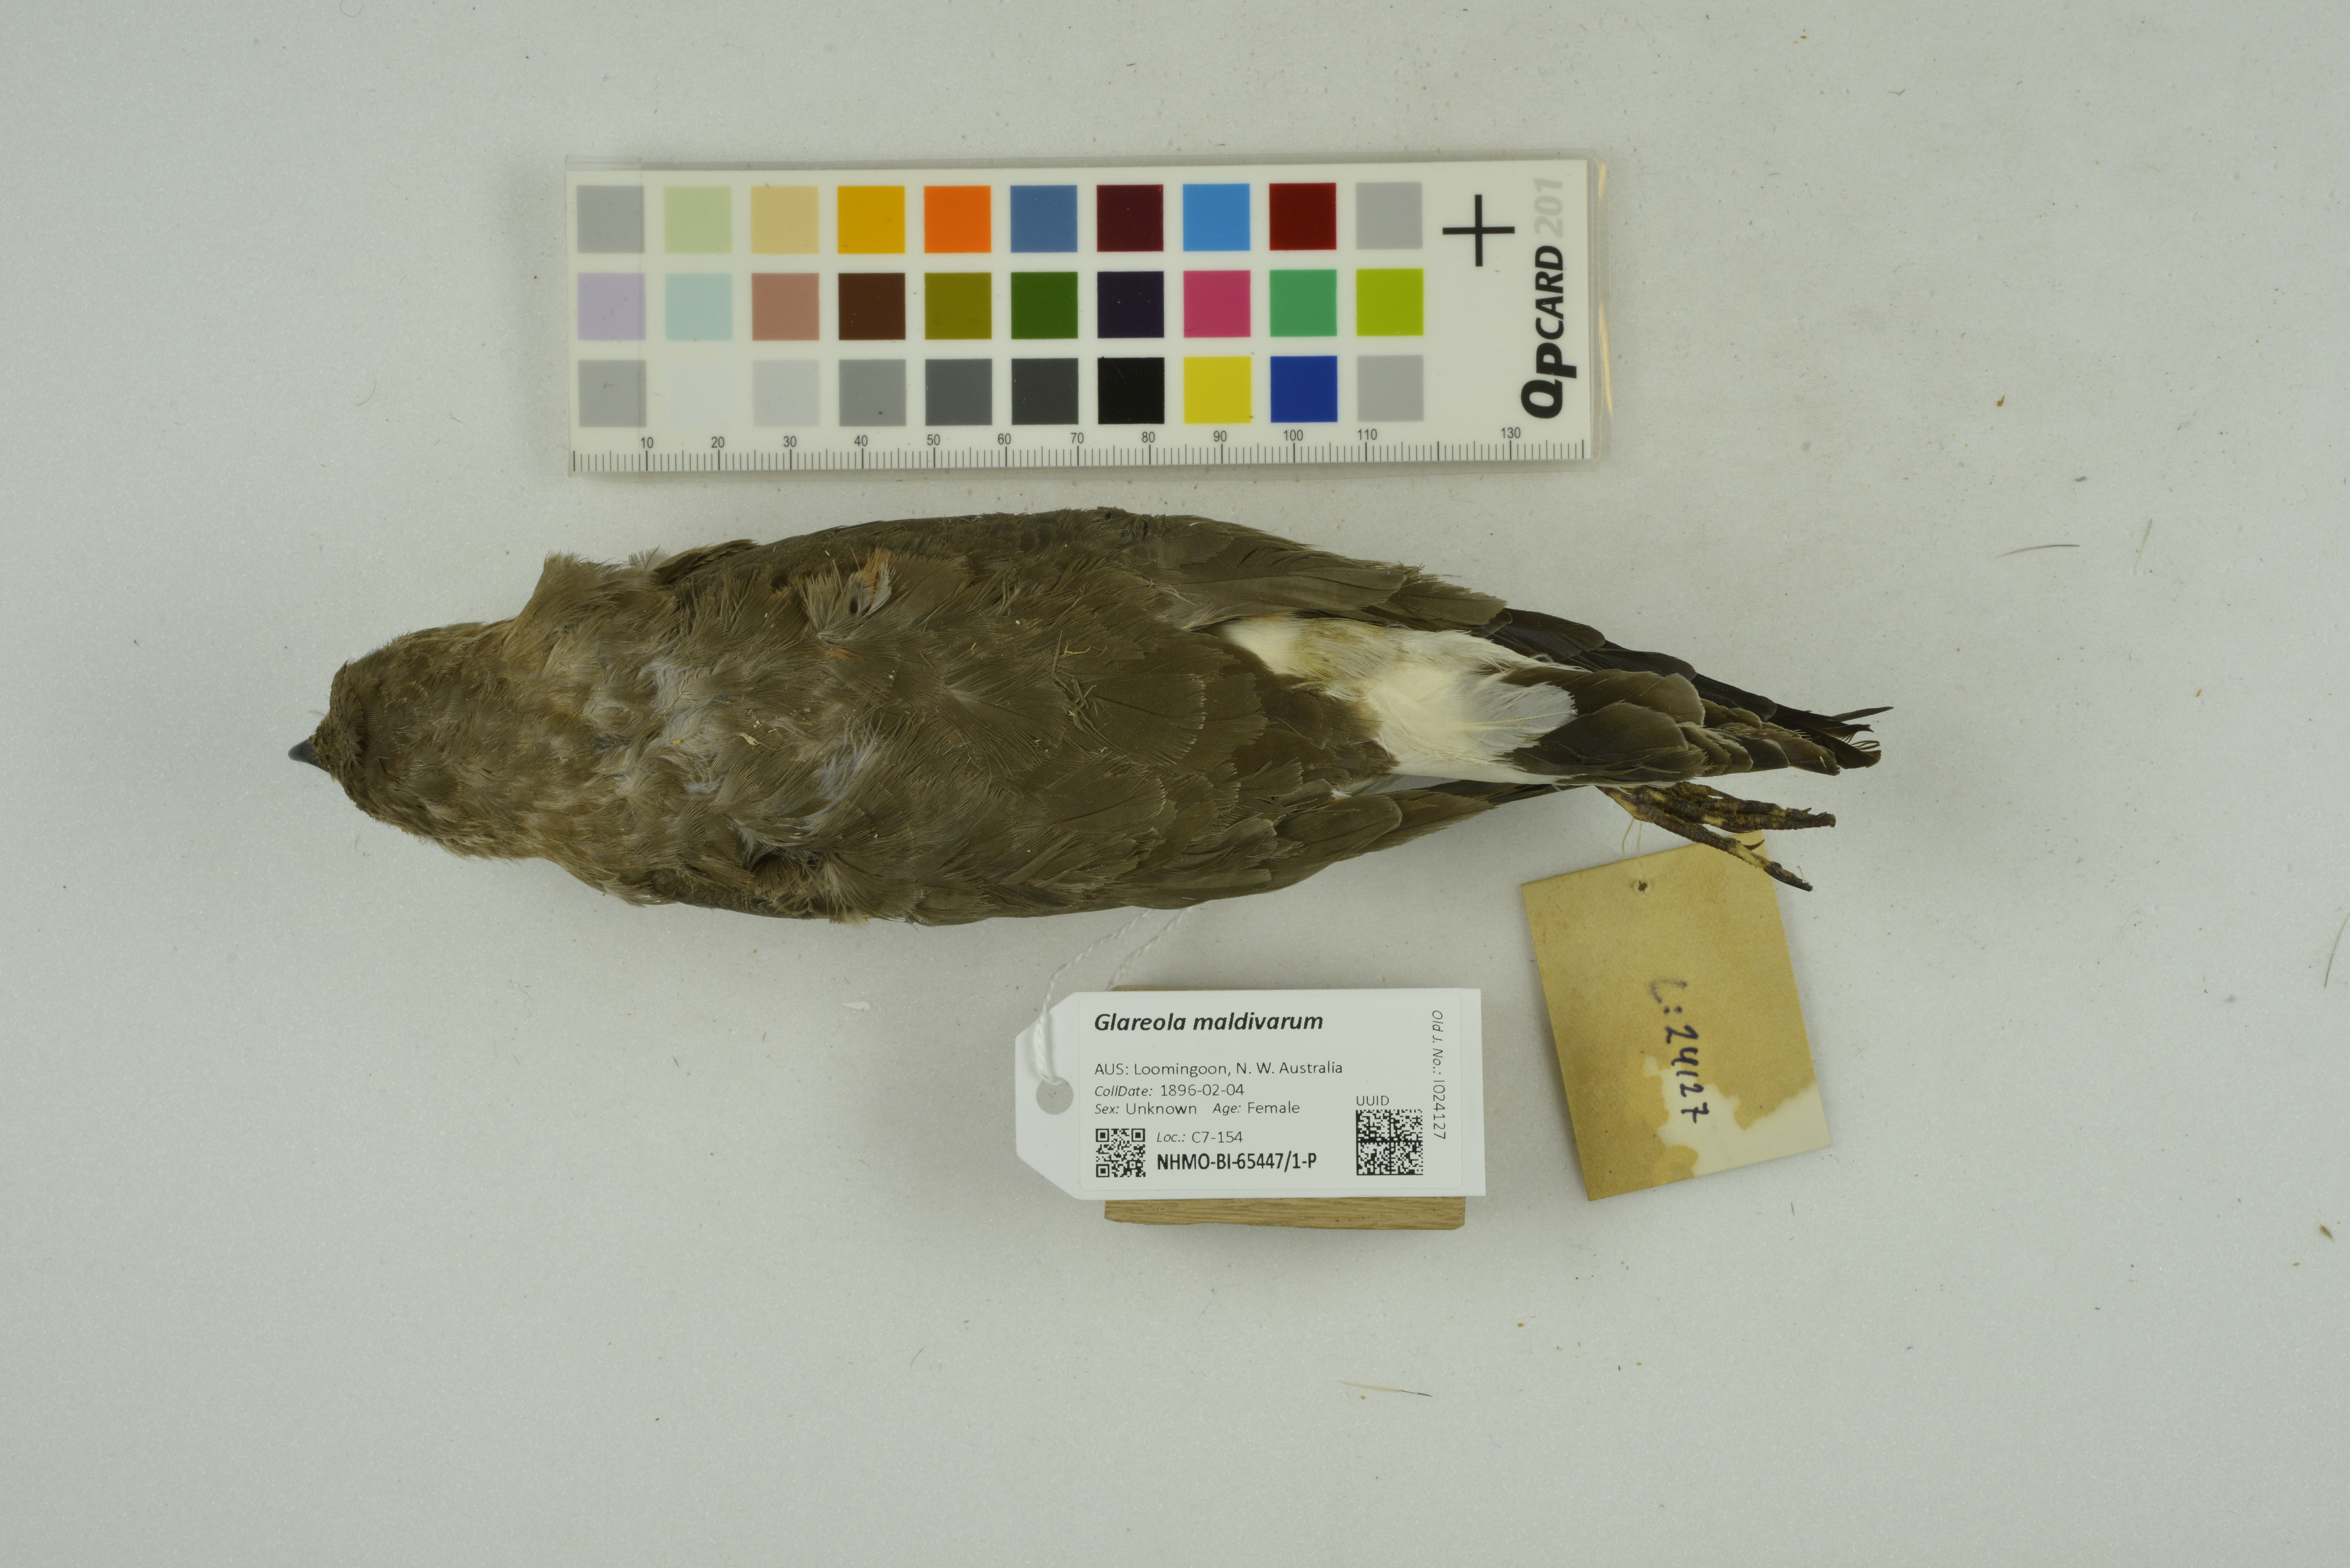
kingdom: Animalia
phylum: Chordata
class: Aves
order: Charadriiformes
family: Glareolidae
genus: Glareola
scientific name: Glareola maldivarum
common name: Oriental pratincole
